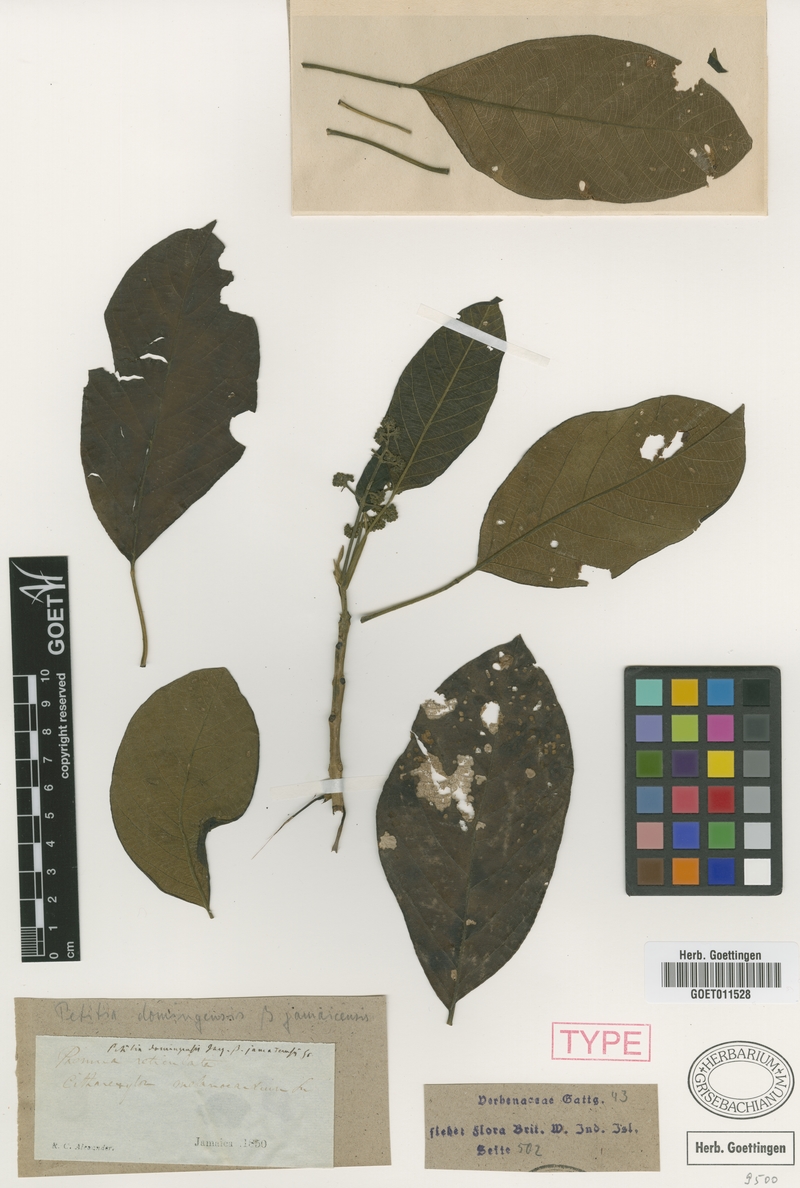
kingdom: Plantae
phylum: Tracheophyta
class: Magnoliopsida
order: Lamiales
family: Lamiaceae
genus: Petitia
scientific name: Petitia domingensis
